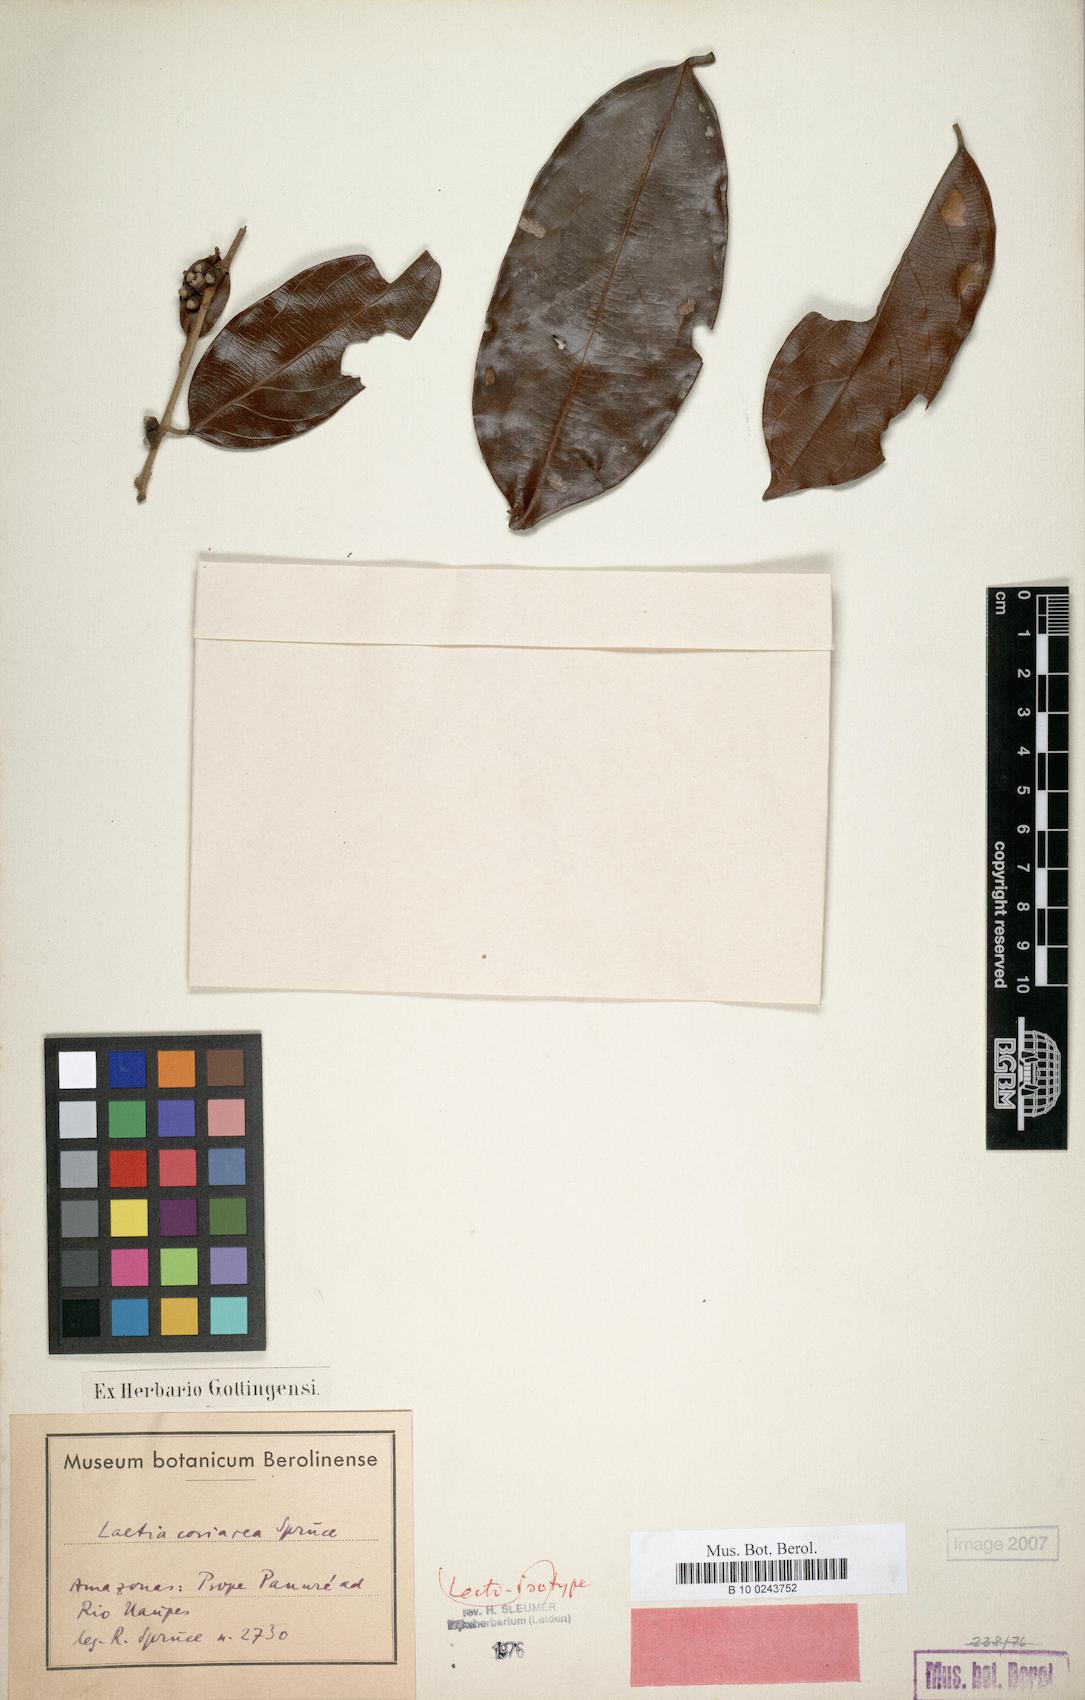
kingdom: Plantae
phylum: Tracheophyta
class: Magnoliopsida
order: Malpighiales
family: Salicaceae
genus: Irenodendron
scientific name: Irenodendron coriaceum
